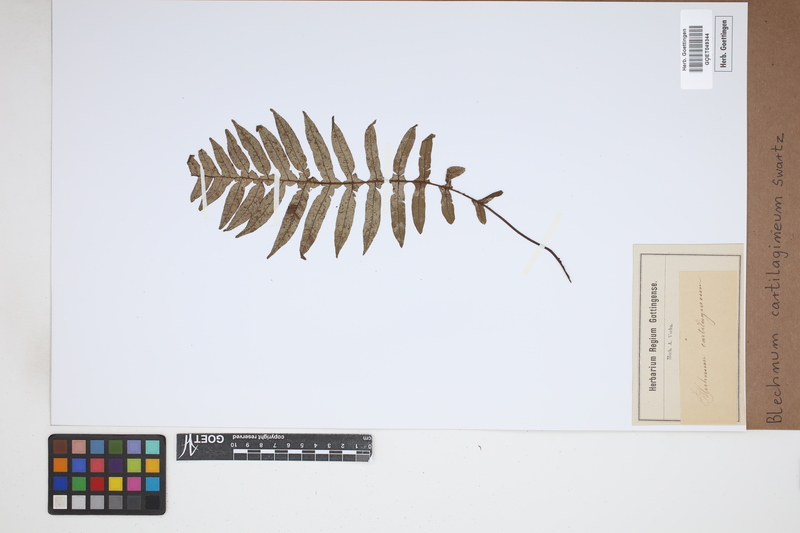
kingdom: Plantae
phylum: Tracheophyta
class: Polypodiopsida
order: Polypodiales
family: Blechnaceae
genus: Oceaniopteris
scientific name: Oceaniopteris cartilaginea
